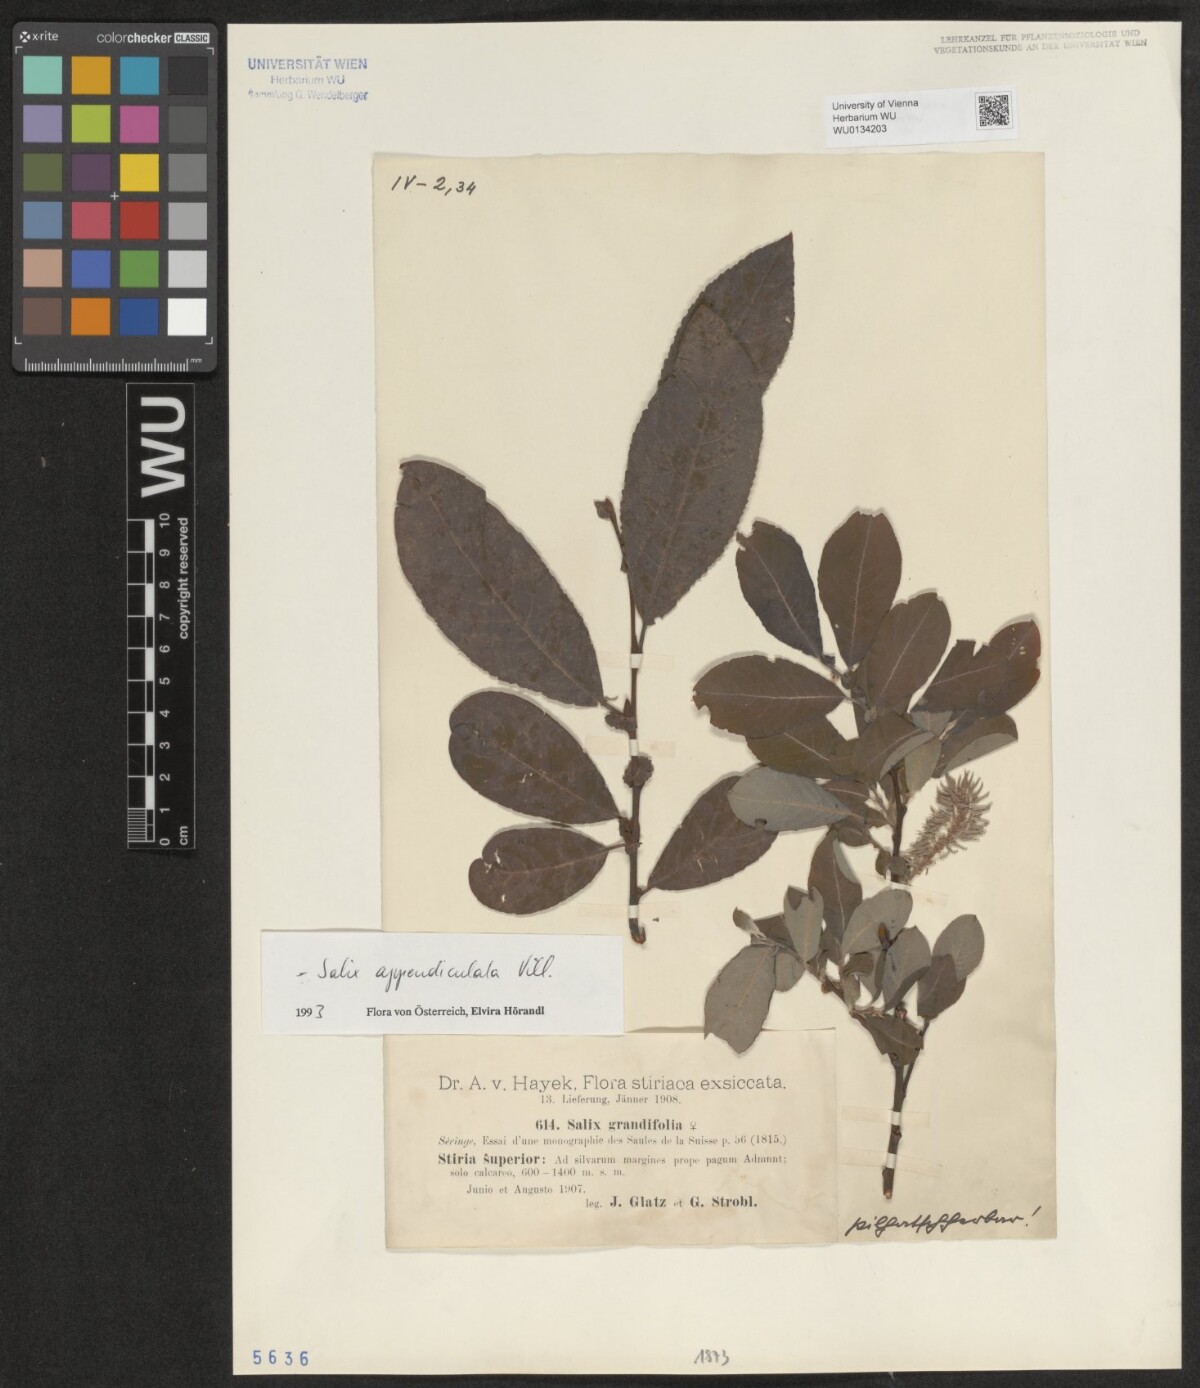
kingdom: Plantae
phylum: Tracheophyta
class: Magnoliopsida
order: Malpighiales
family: Salicaceae
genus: Salix
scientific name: Salix appendiculata
